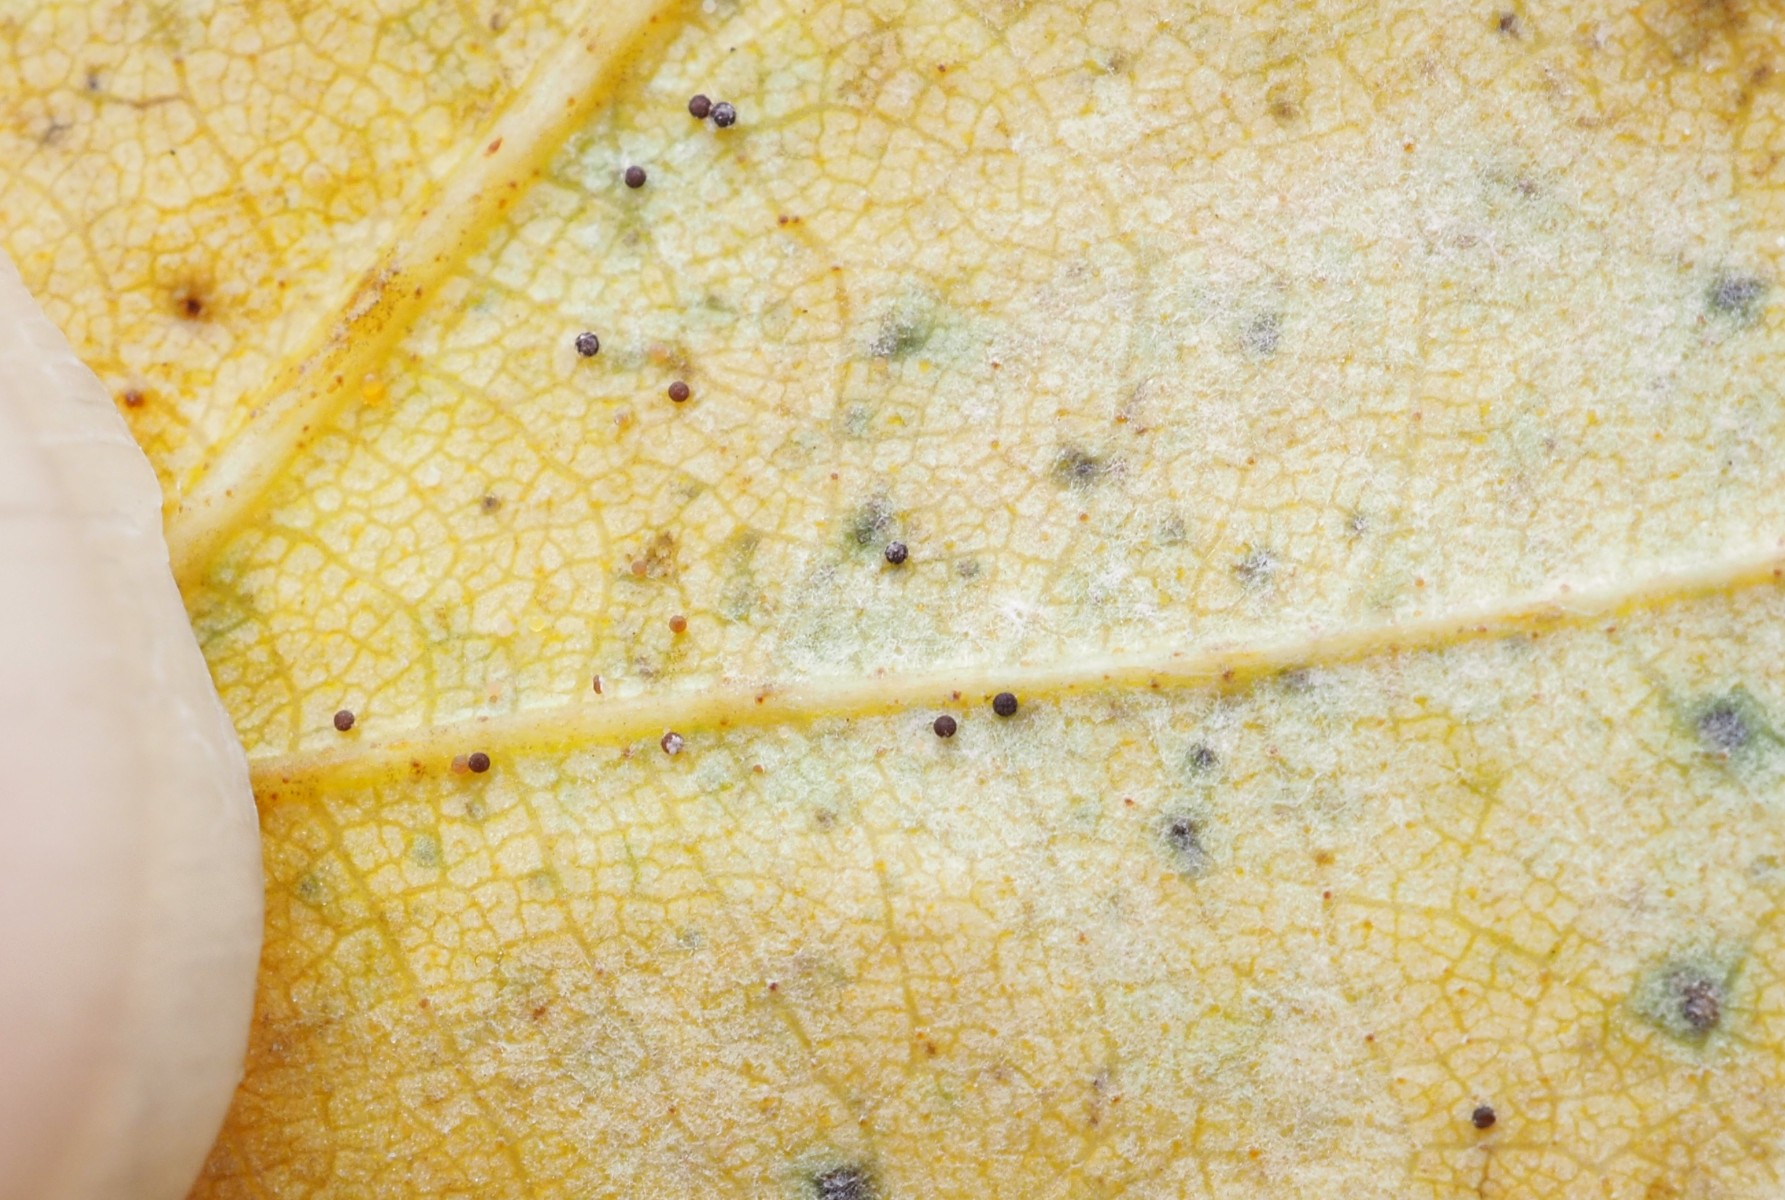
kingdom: Fungi
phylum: Ascomycota
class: Leotiomycetes
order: Helotiales
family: Erysiphaceae
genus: Phyllactinia
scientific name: Phyllactinia guttata
